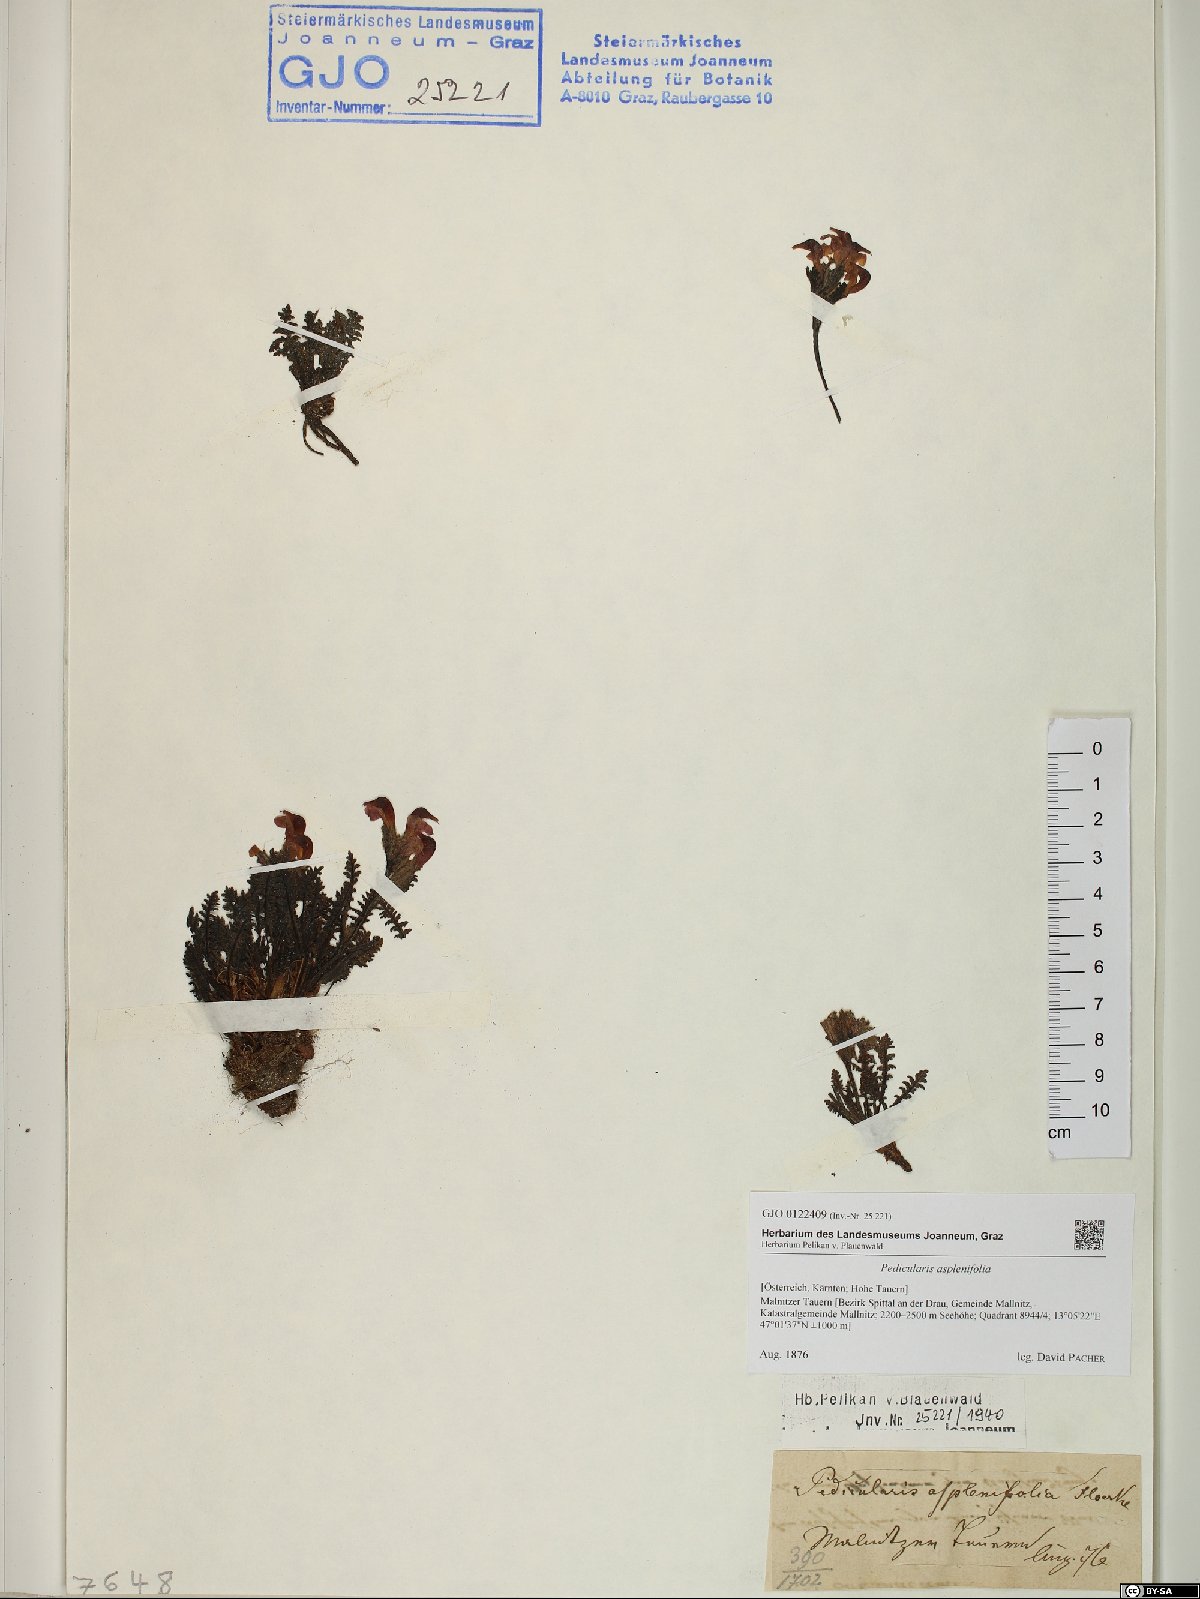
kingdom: Plantae
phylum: Tracheophyta
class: Magnoliopsida
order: Lamiales
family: Orobanchaceae
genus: Pedicularis
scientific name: Pedicularis asplenifolia
